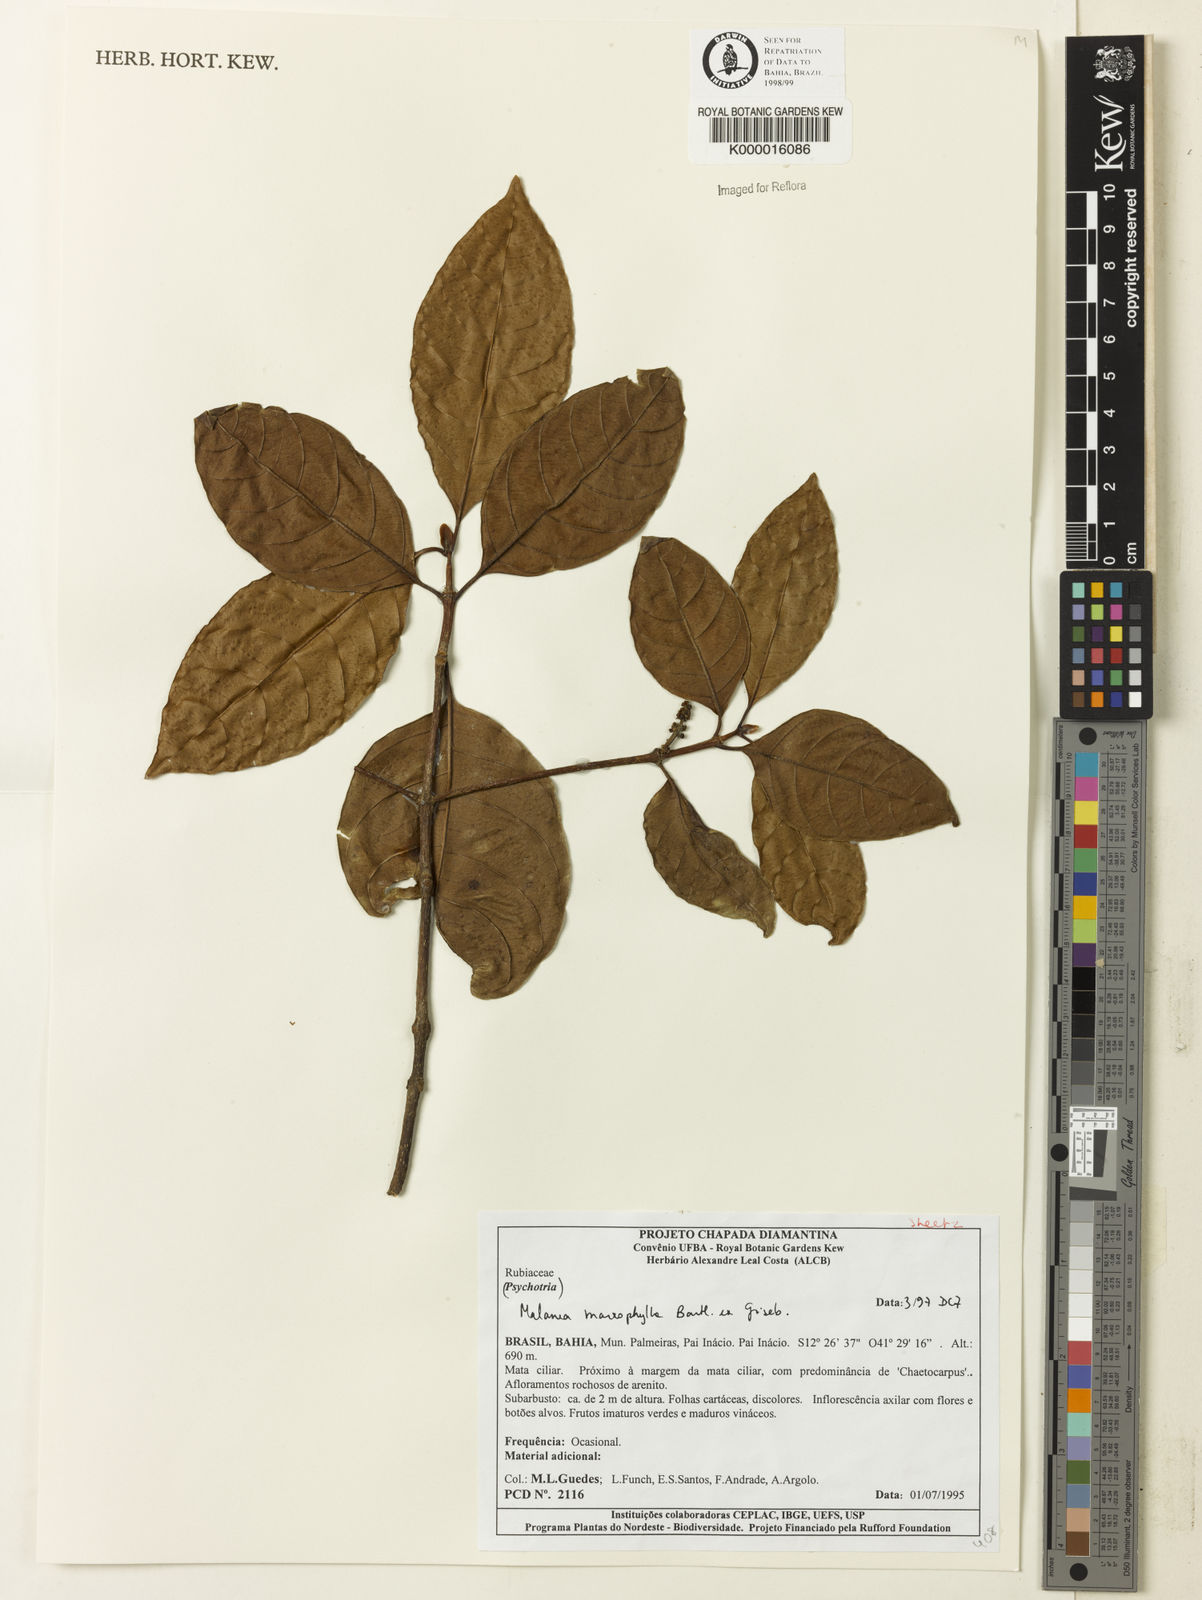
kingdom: Plantae
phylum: Tracheophyta
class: Magnoliopsida
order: Gentianales
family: Rubiaceae
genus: Malanea
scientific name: Malanea glabra
